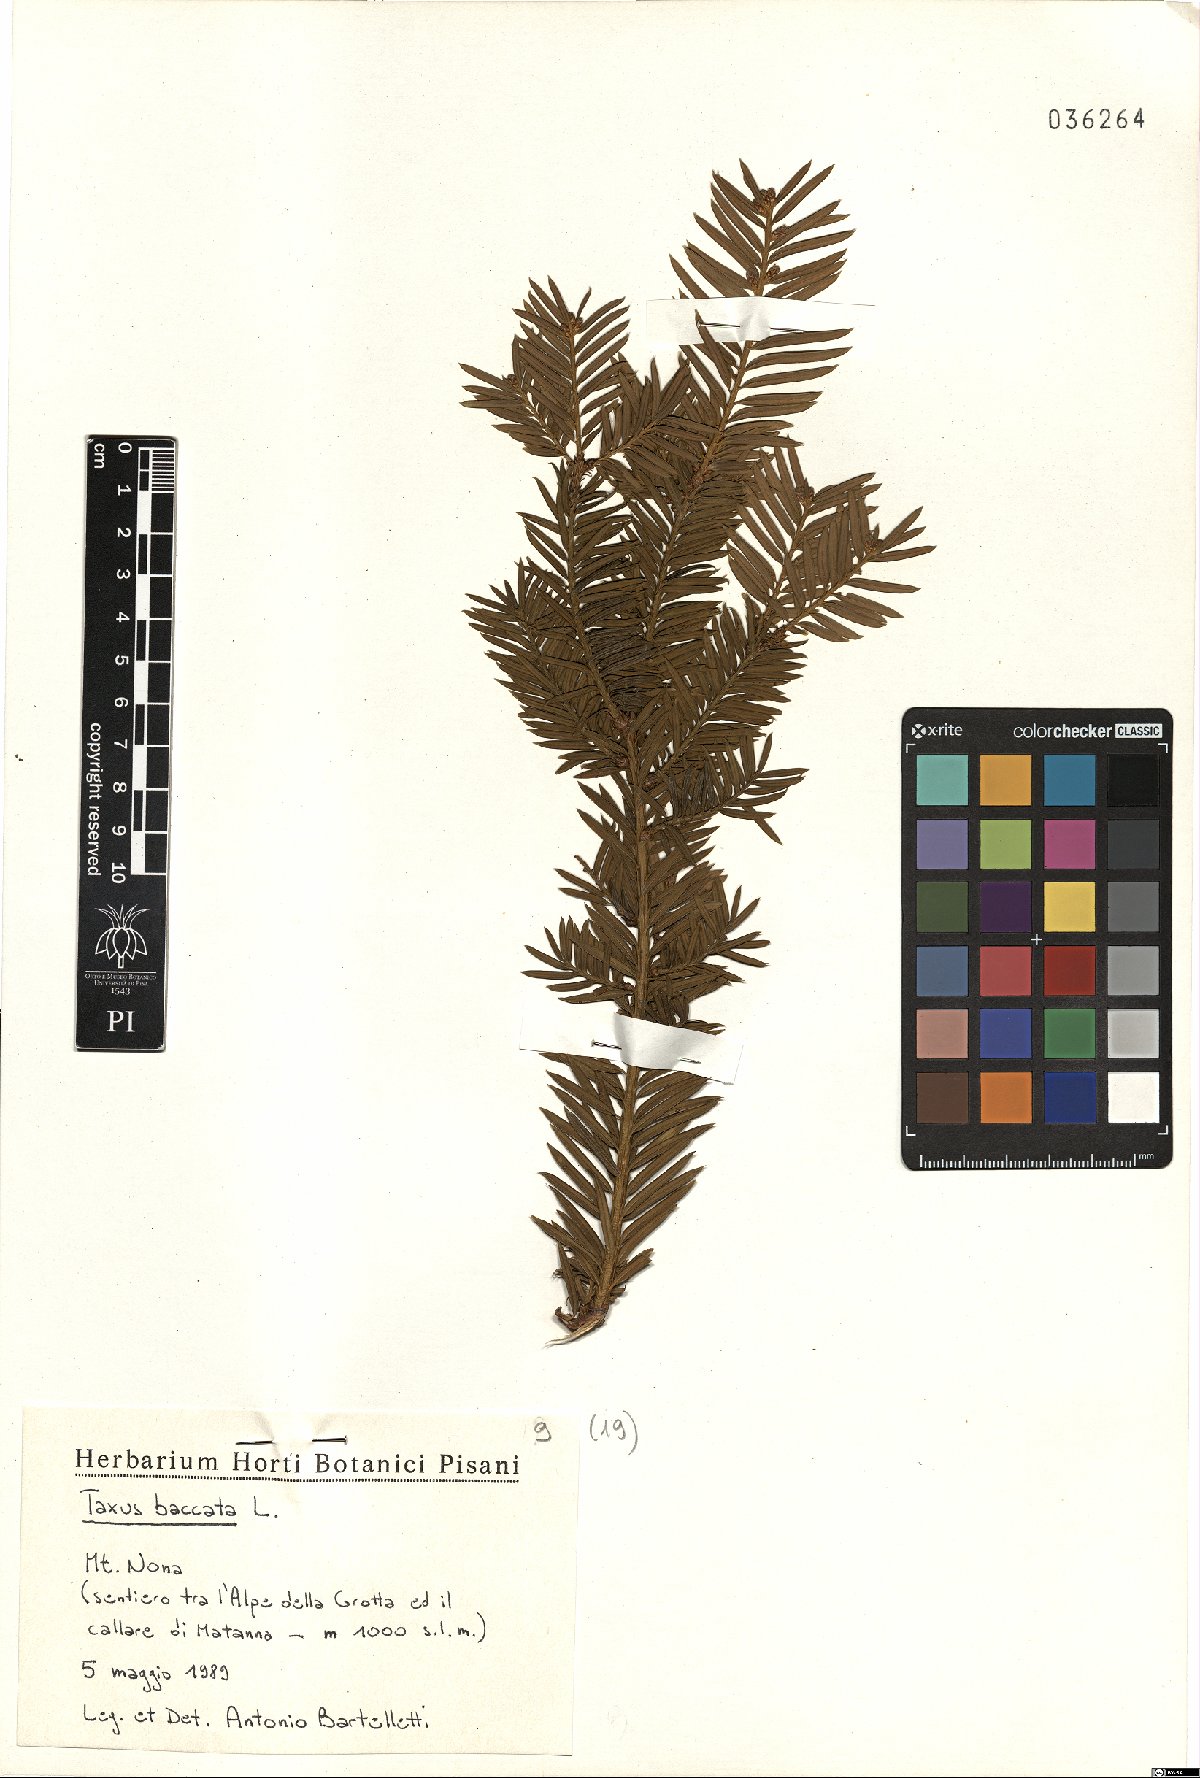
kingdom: Plantae
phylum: Tracheophyta
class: Pinopsida
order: Pinales
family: Taxaceae
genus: Taxus
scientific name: Taxus baccata
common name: Yew
